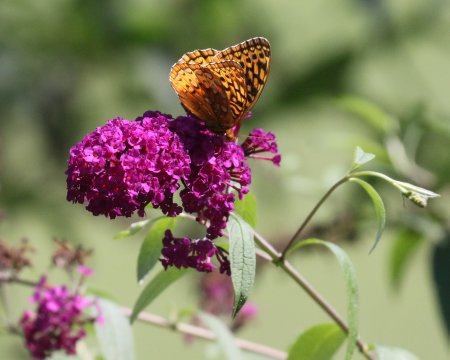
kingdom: Animalia
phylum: Arthropoda
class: Insecta
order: Lepidoptera
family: Nymphalidae
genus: Speyeria
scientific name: Speyeria cybele
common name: Great Spangled Fritillary
